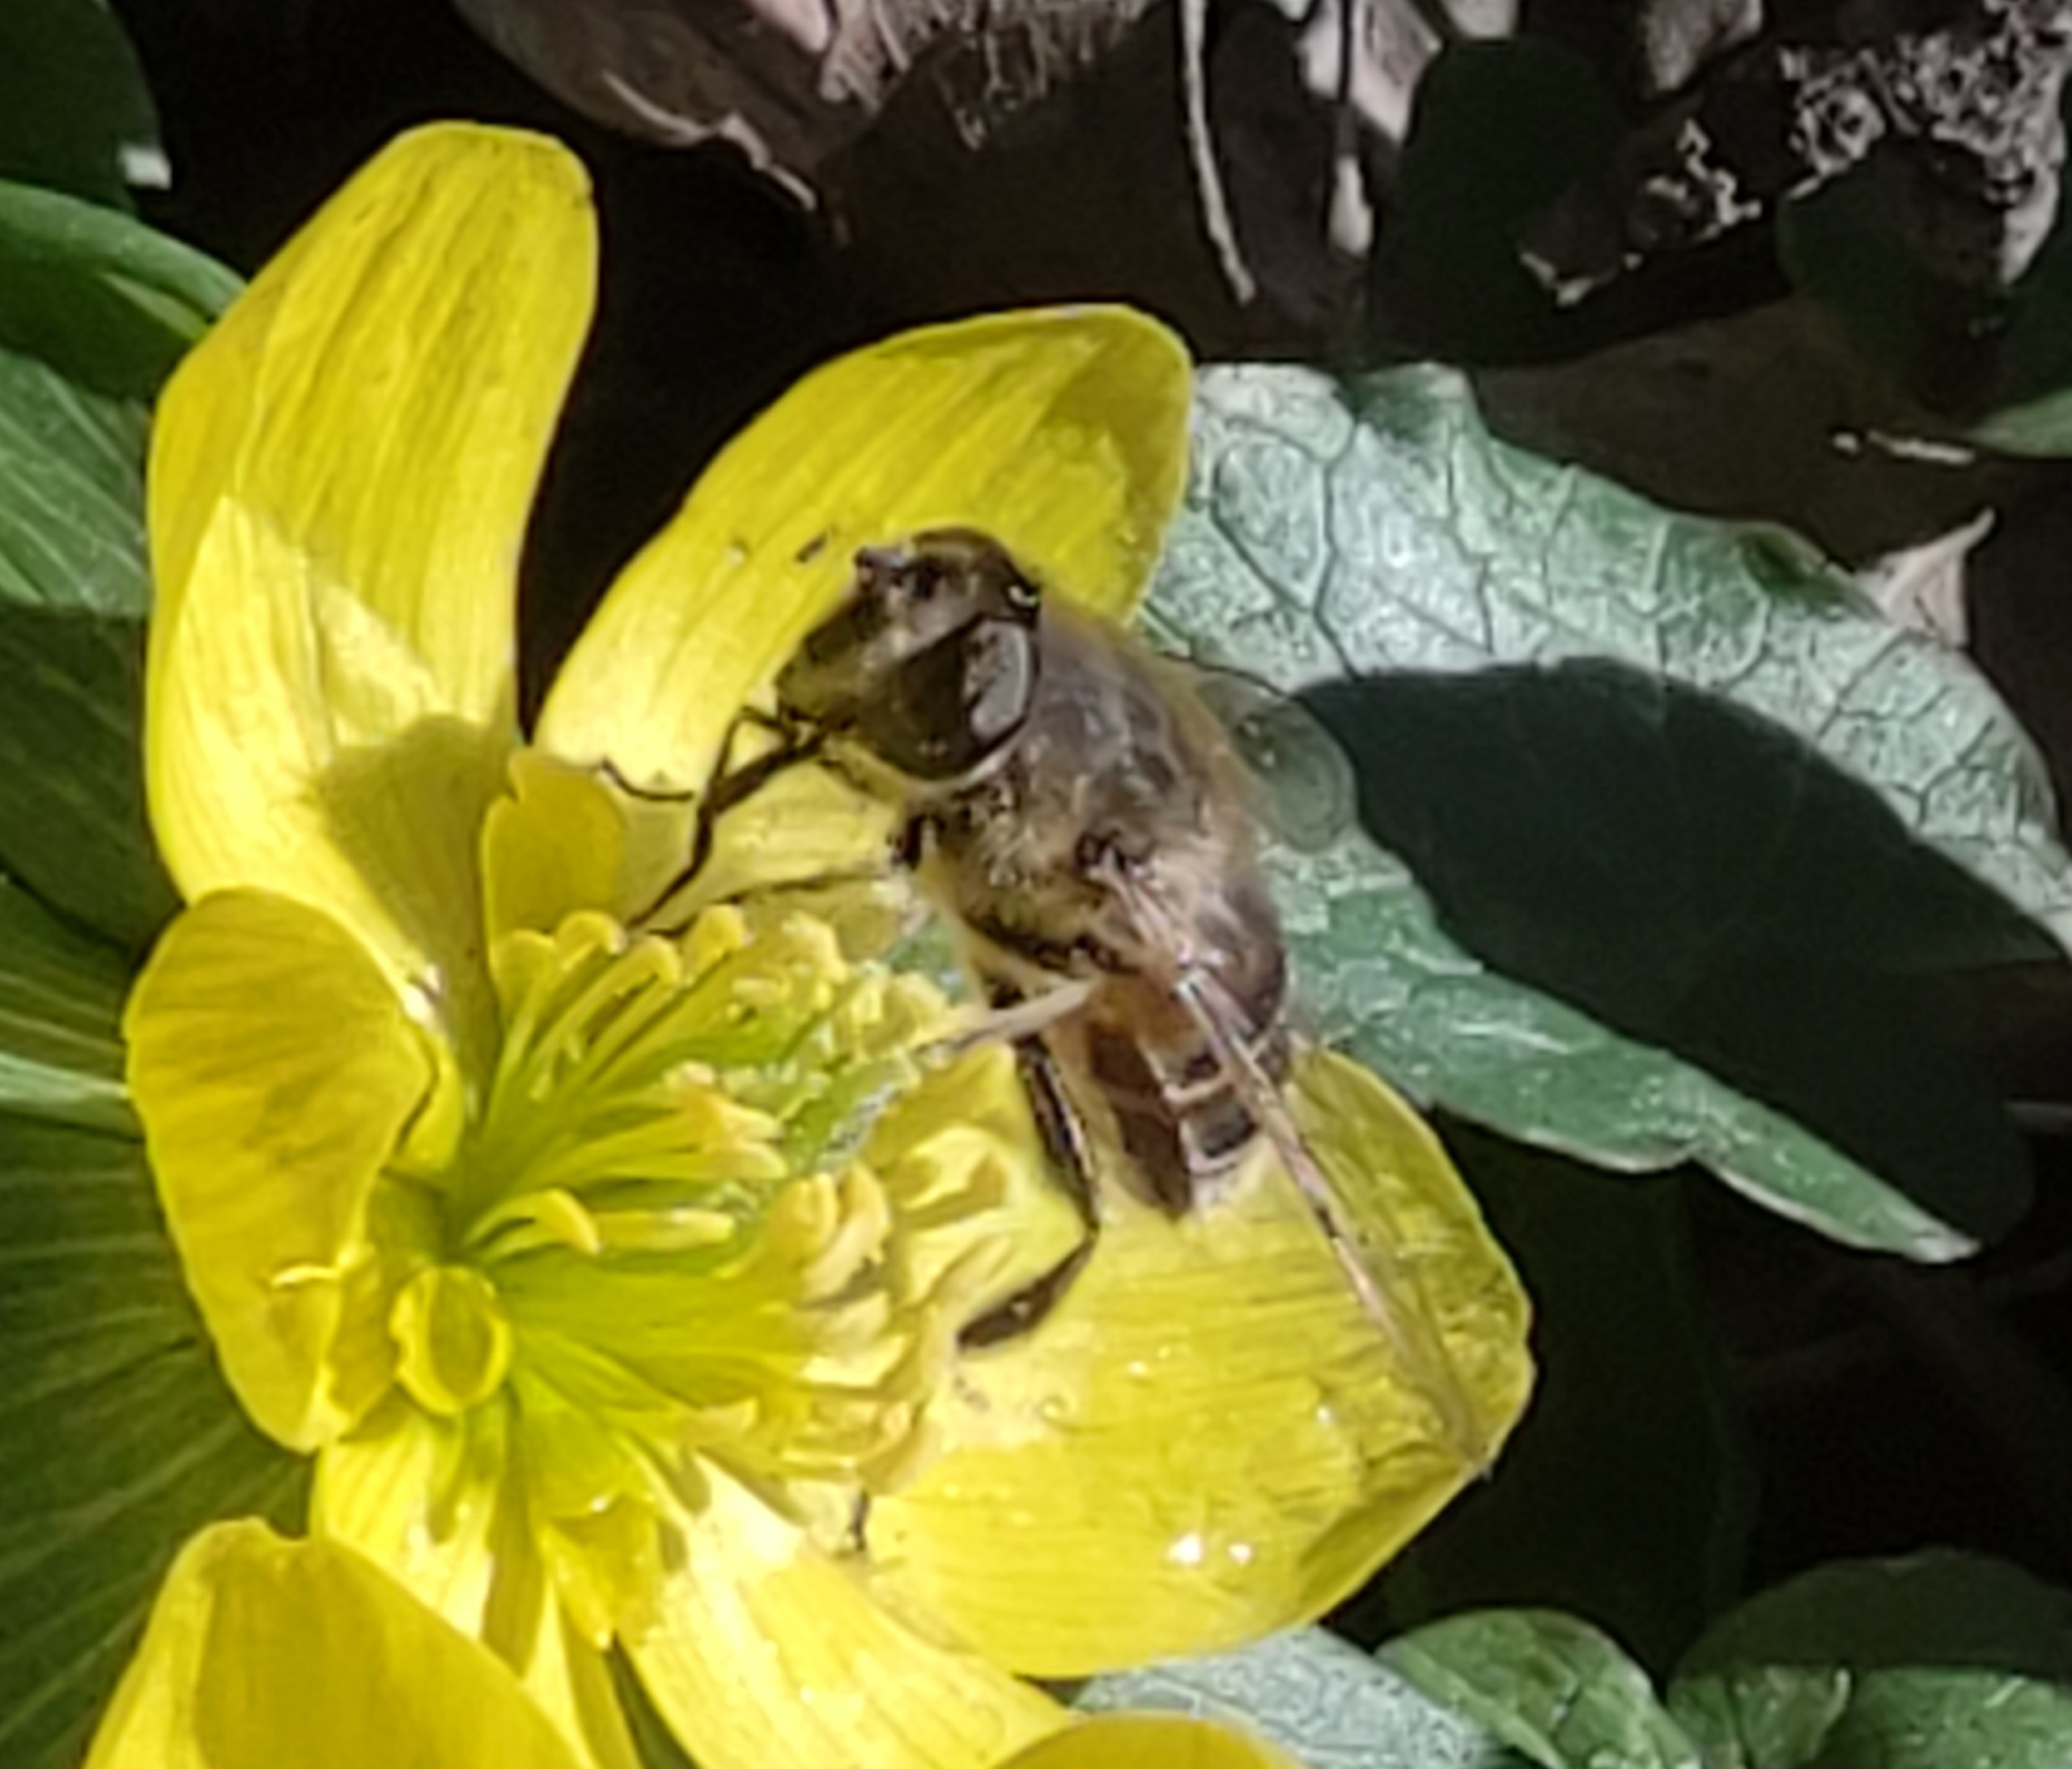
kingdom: Animalia
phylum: Arthropoda
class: Insecta
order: Diptera
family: Syrphidae
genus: Eristalis
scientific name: Eristalis tenax
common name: Droneflue
